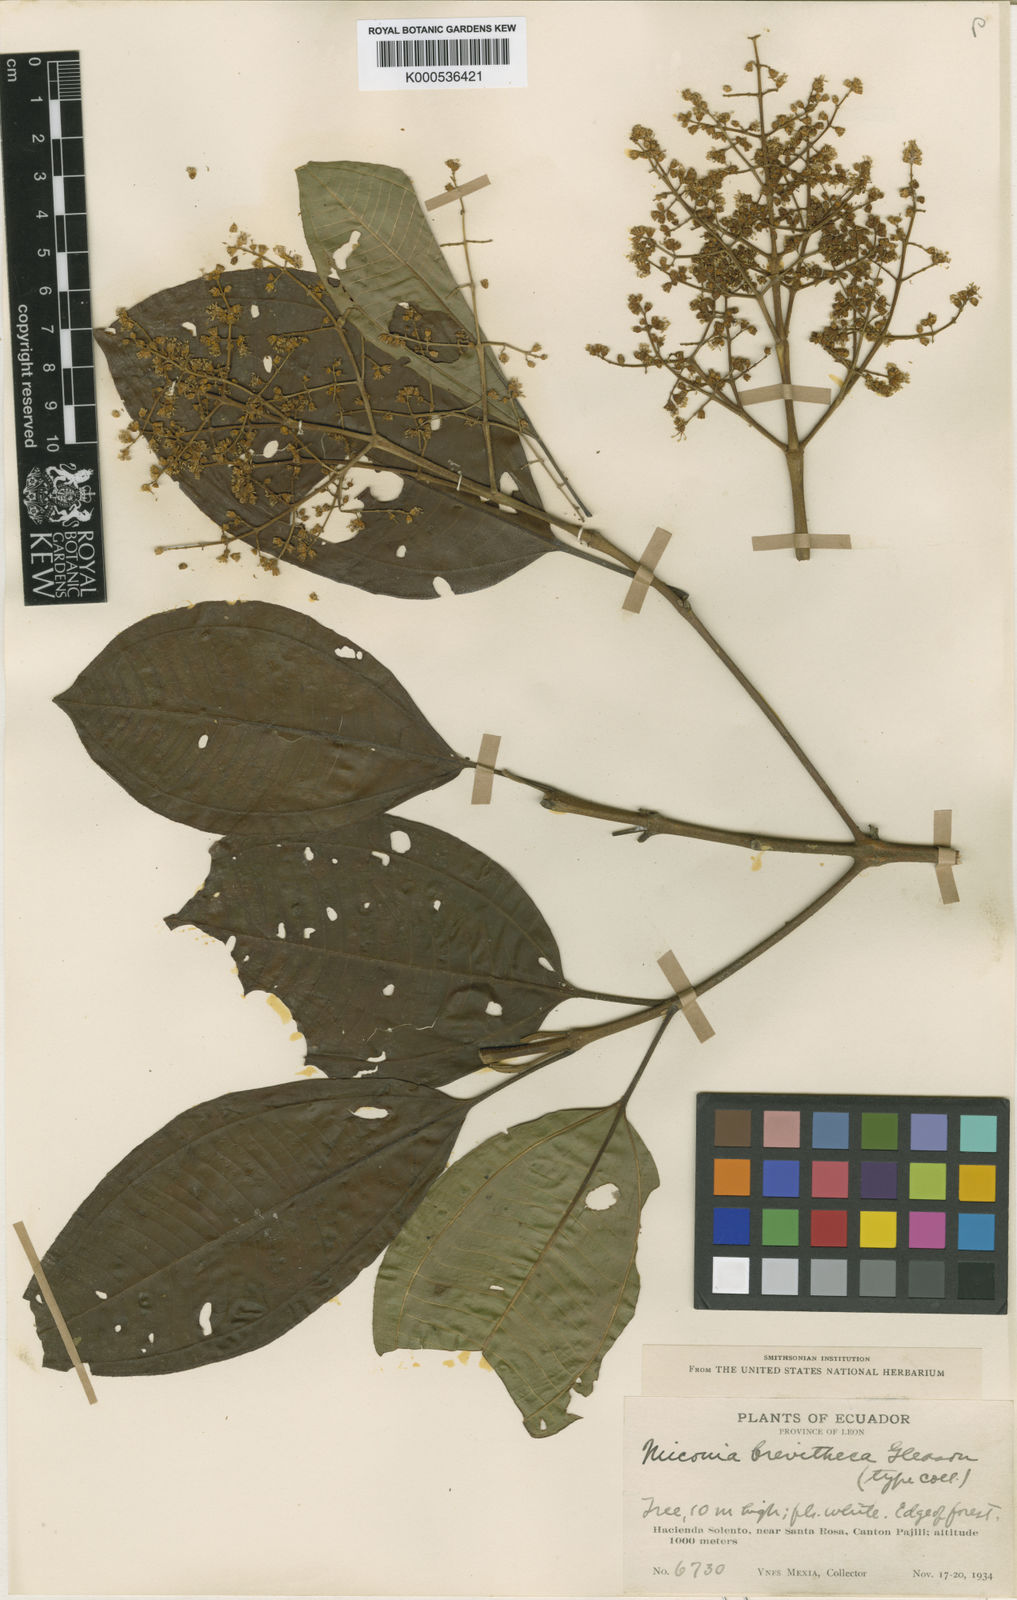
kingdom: Plantae
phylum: Tracheophyta
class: Magnoliopsida
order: Myrtales
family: Melastomataceae
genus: Miconia
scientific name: Miconia brevitheca
